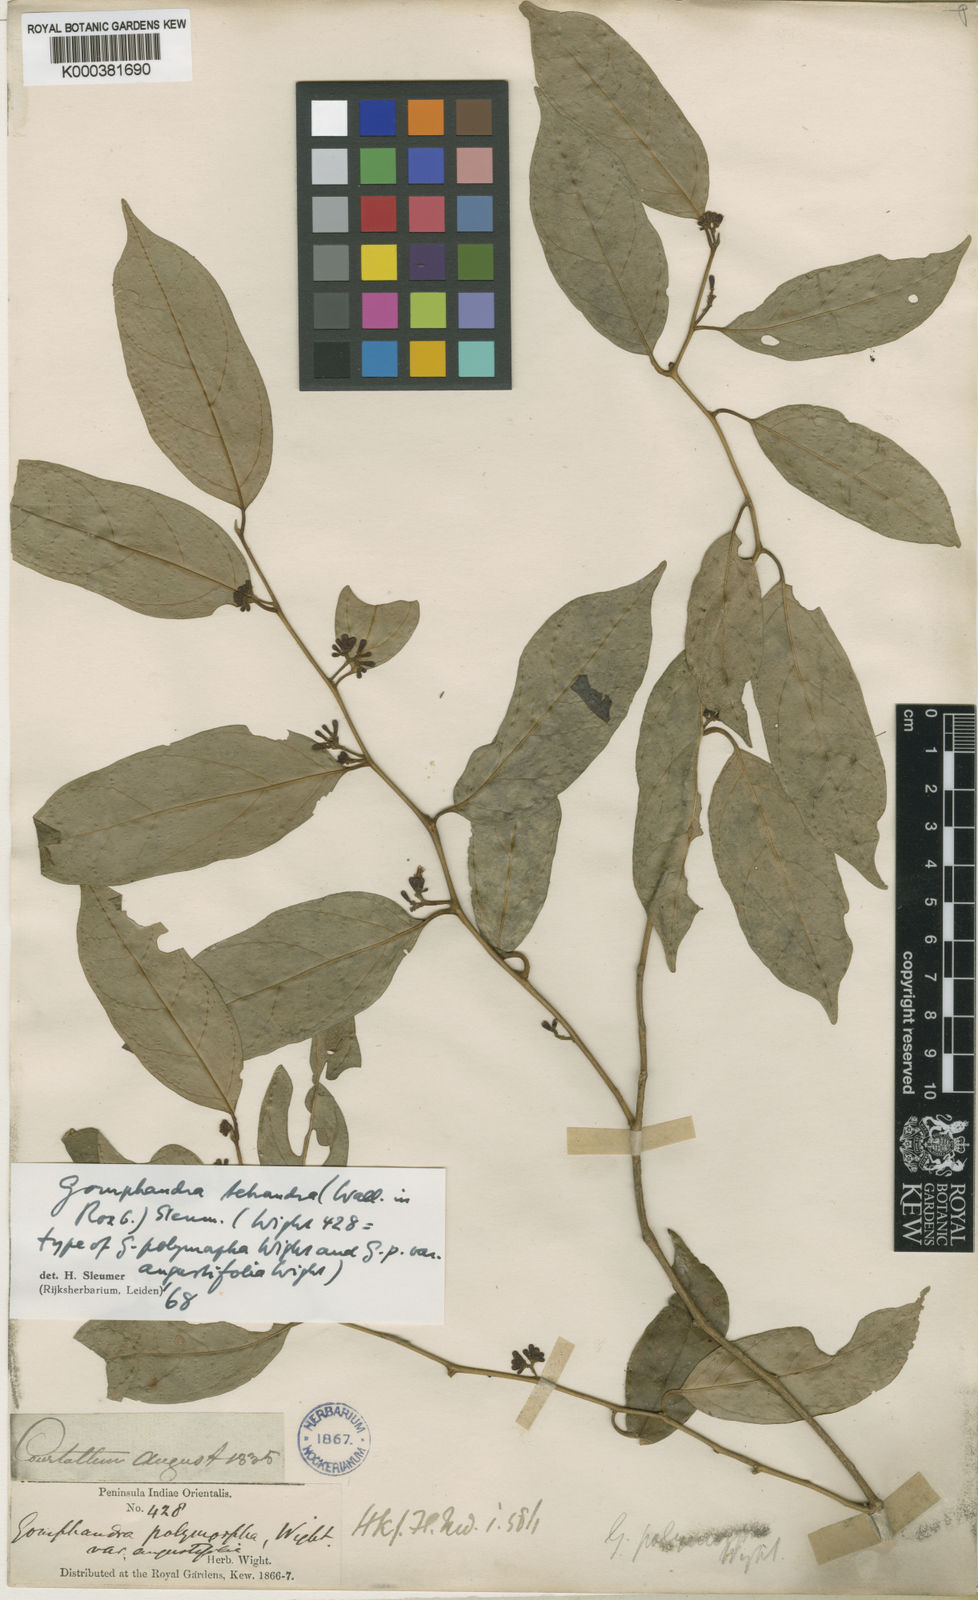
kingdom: Plantae
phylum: Tracheophyta
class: Magnoliopsida
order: Cardiopteridales
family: Stemonuraceae
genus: Gomphandra
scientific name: Gomphandra tetrandra
